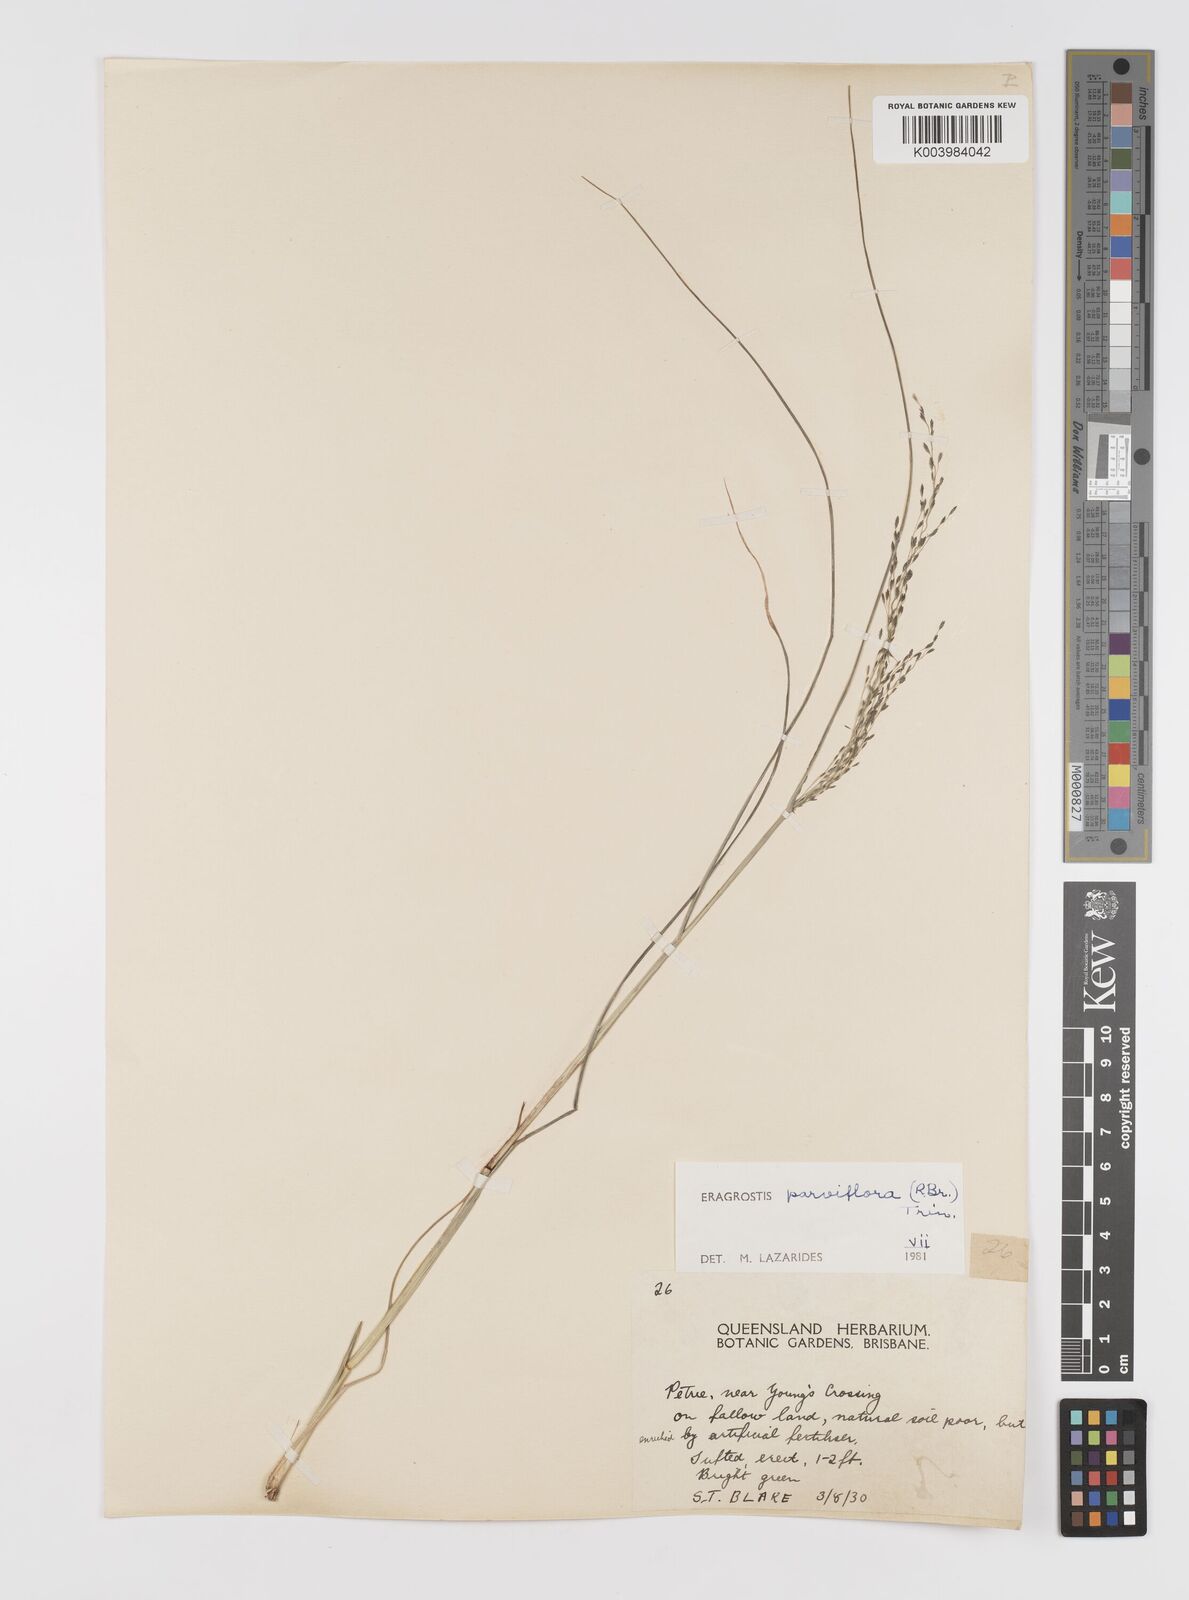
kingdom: Plantae
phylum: Tracheophyta
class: Liliopsida
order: Poales
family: Poaceae
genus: Eragrostis
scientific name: Eragrostis parviflora
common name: Weeping love-grass
